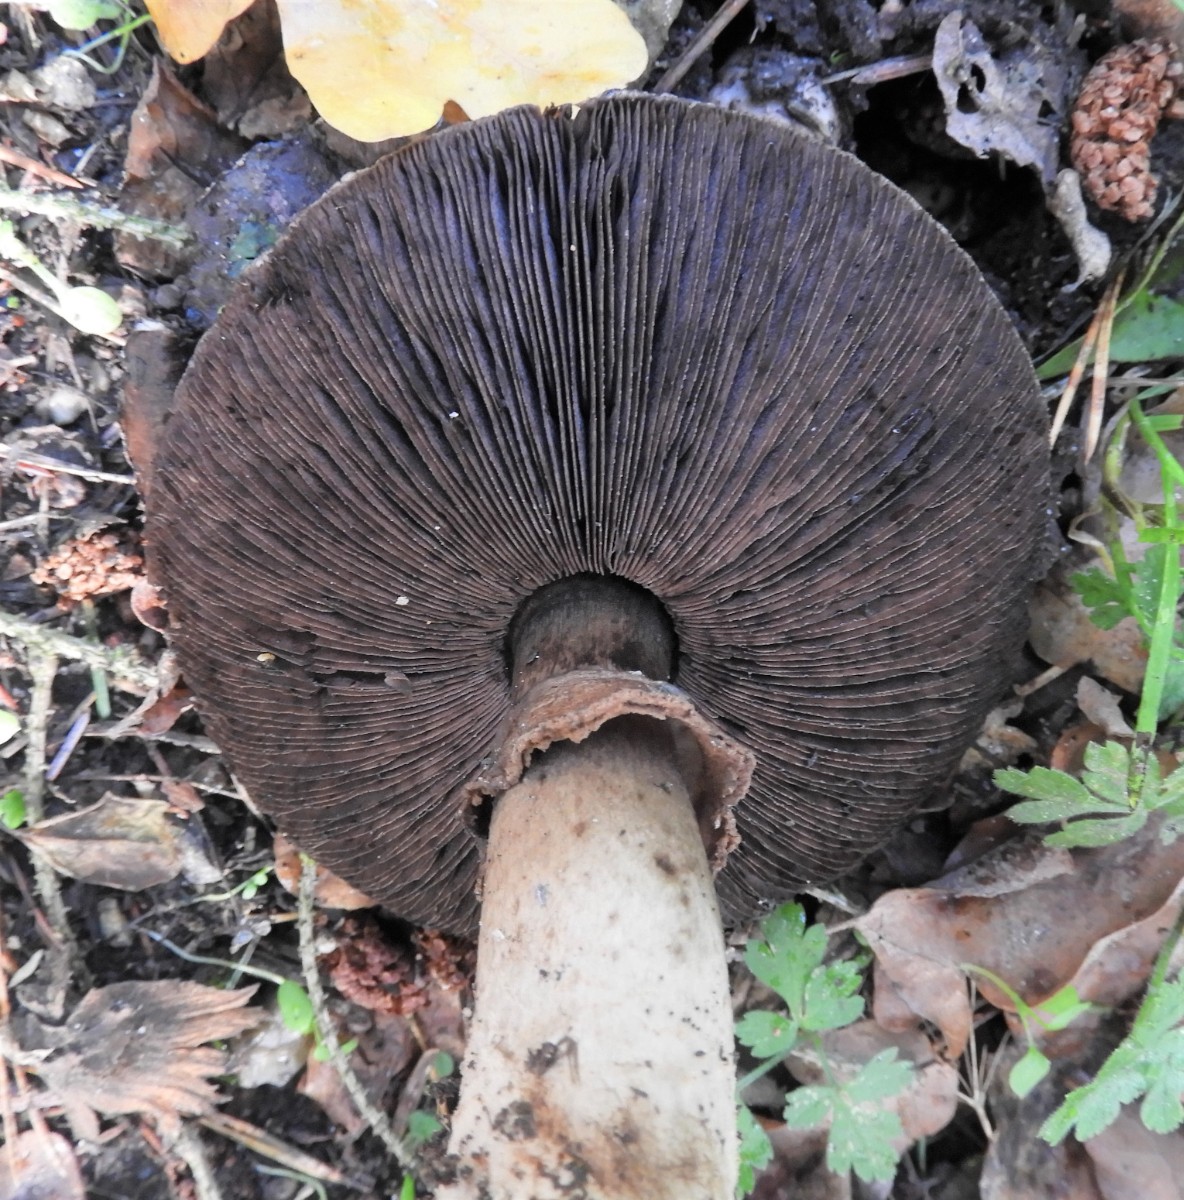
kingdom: Fungi
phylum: Basidiomycota
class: Agaricomycetes
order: Agaricales
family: Agaricaceae
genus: Agaricus
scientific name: Agaricus
